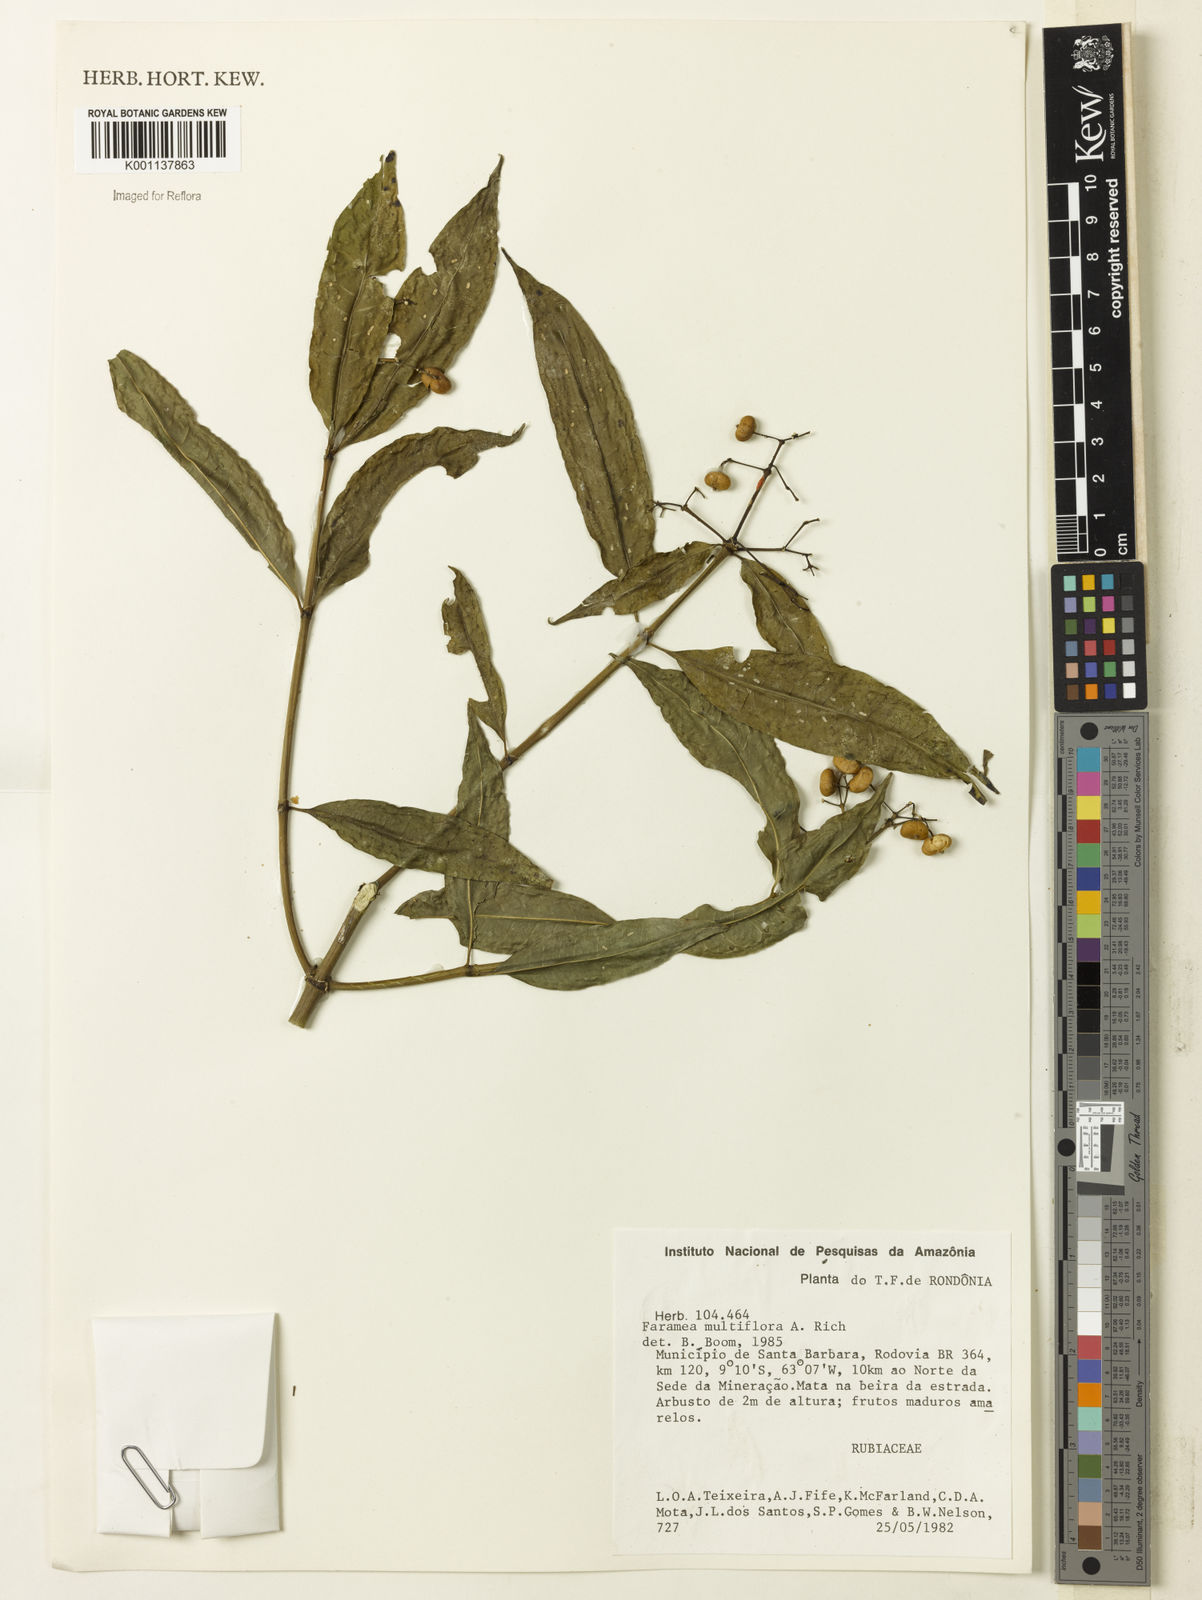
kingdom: Plantae
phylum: Tracheophyta
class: Magnoliopsida
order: Gentianales
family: Rubiaceae
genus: Faramea
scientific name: Faramea multiflora
